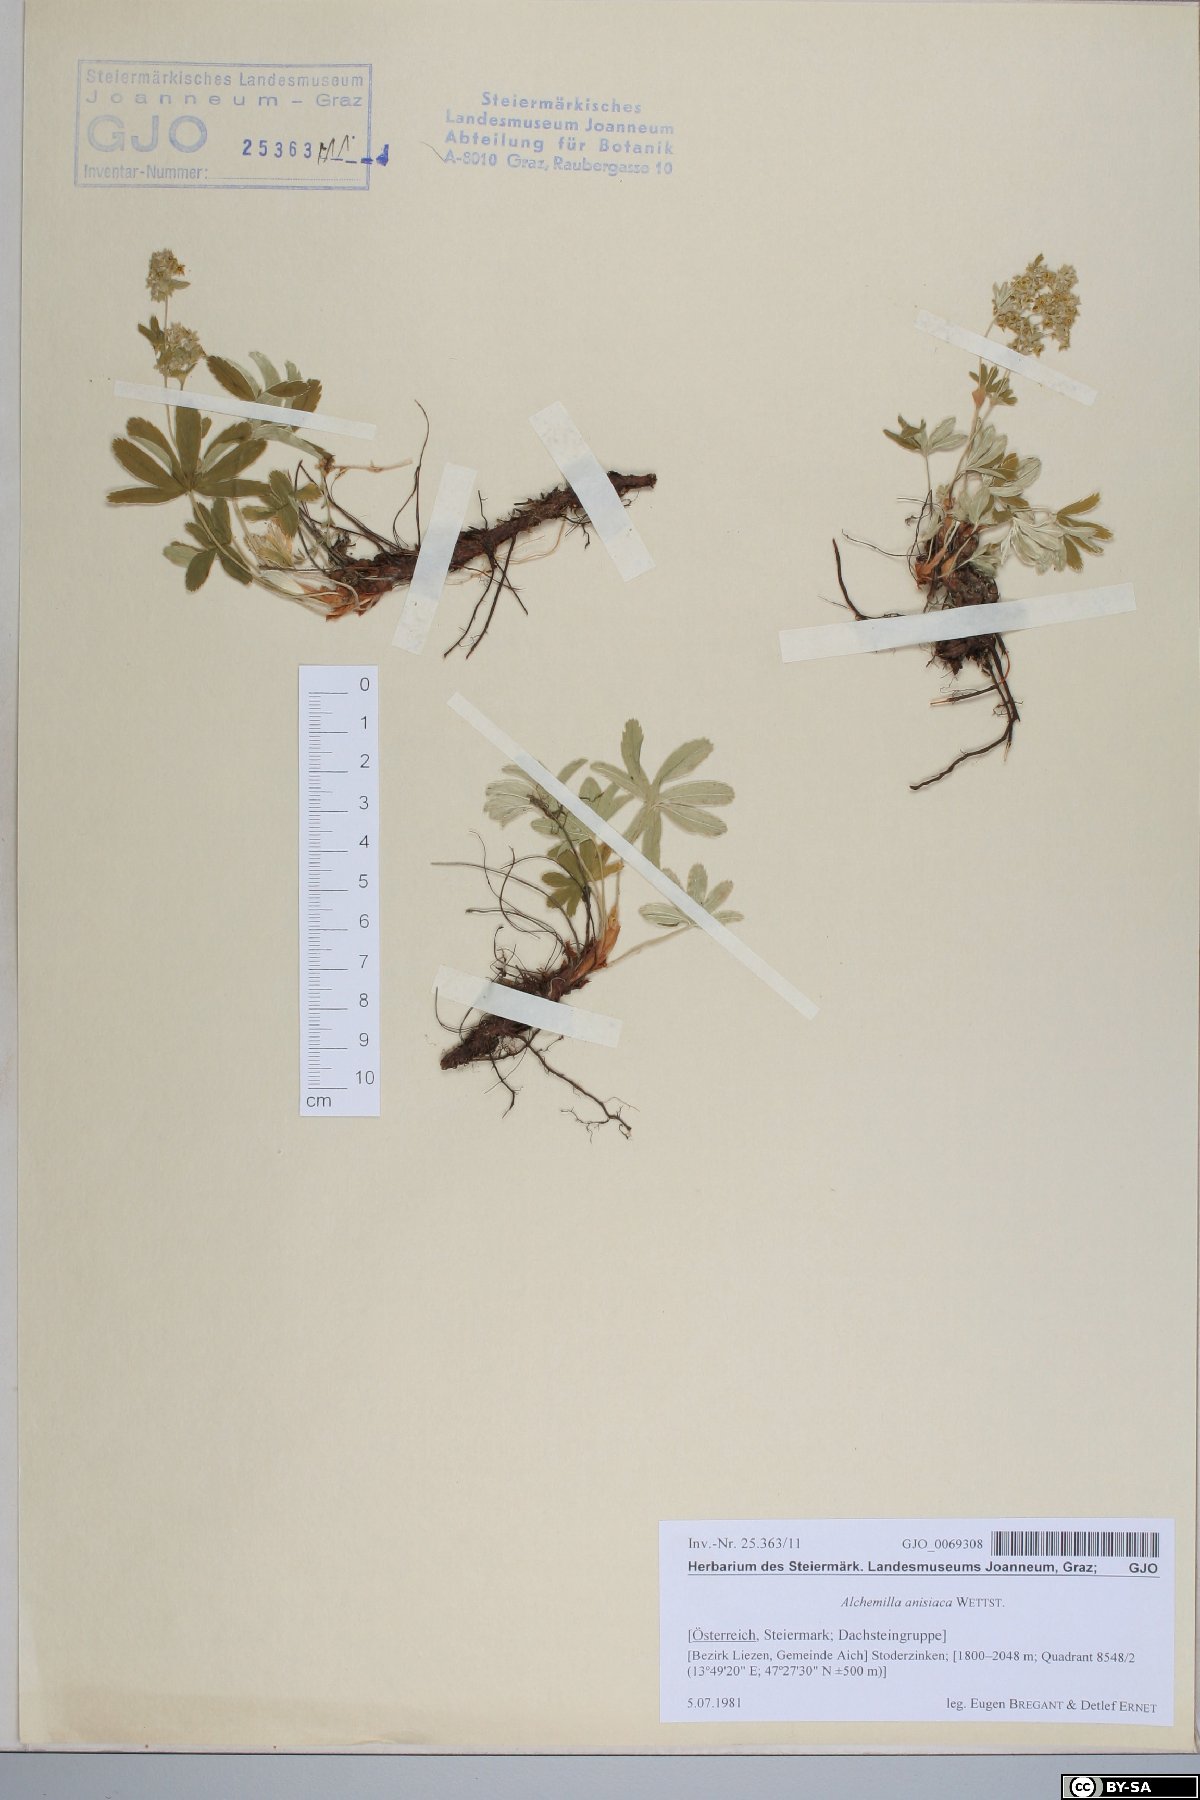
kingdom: Plantae
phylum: Tracheophyta
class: Magnoliopsida
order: Rosales
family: Rosaceae
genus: Alchemilla
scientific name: Alchemilla anisiaca
